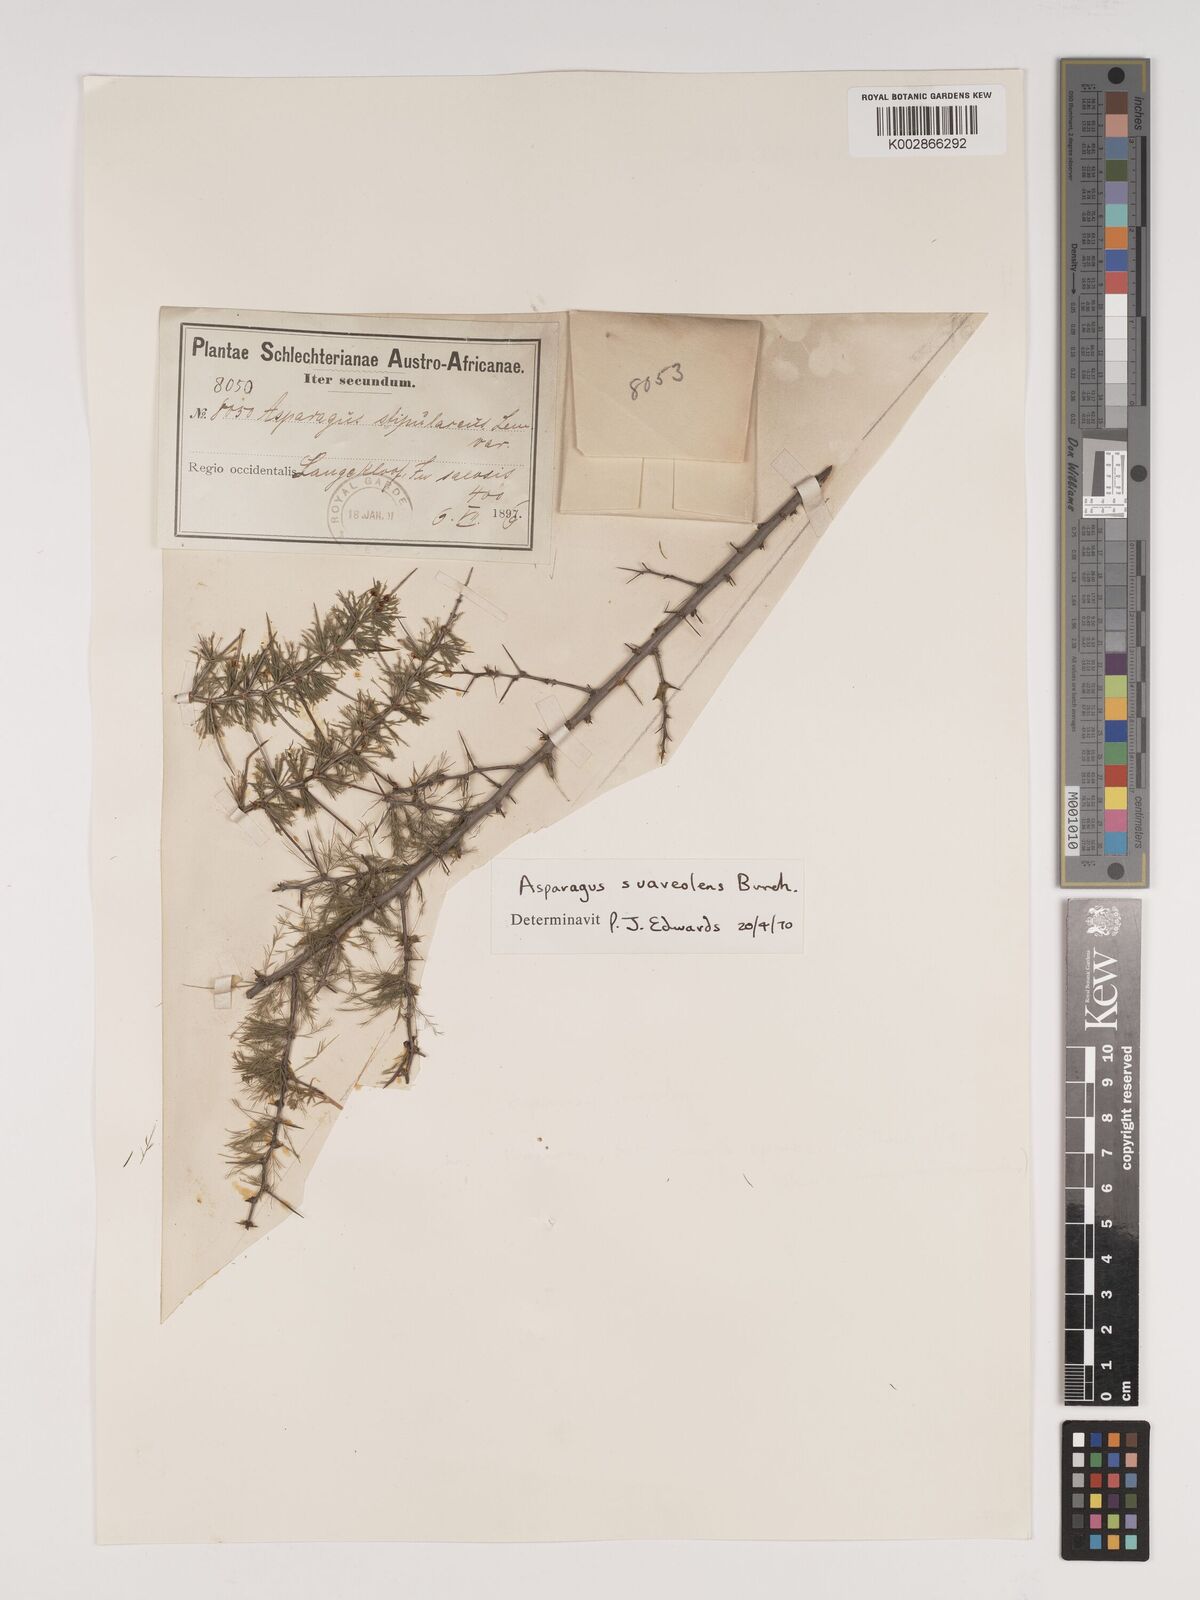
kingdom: Plantae
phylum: Tracheophyta
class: Liliopsida
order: Asparagales
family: Asparagaceae
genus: Asparagus
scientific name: Asparagus suaveolens
